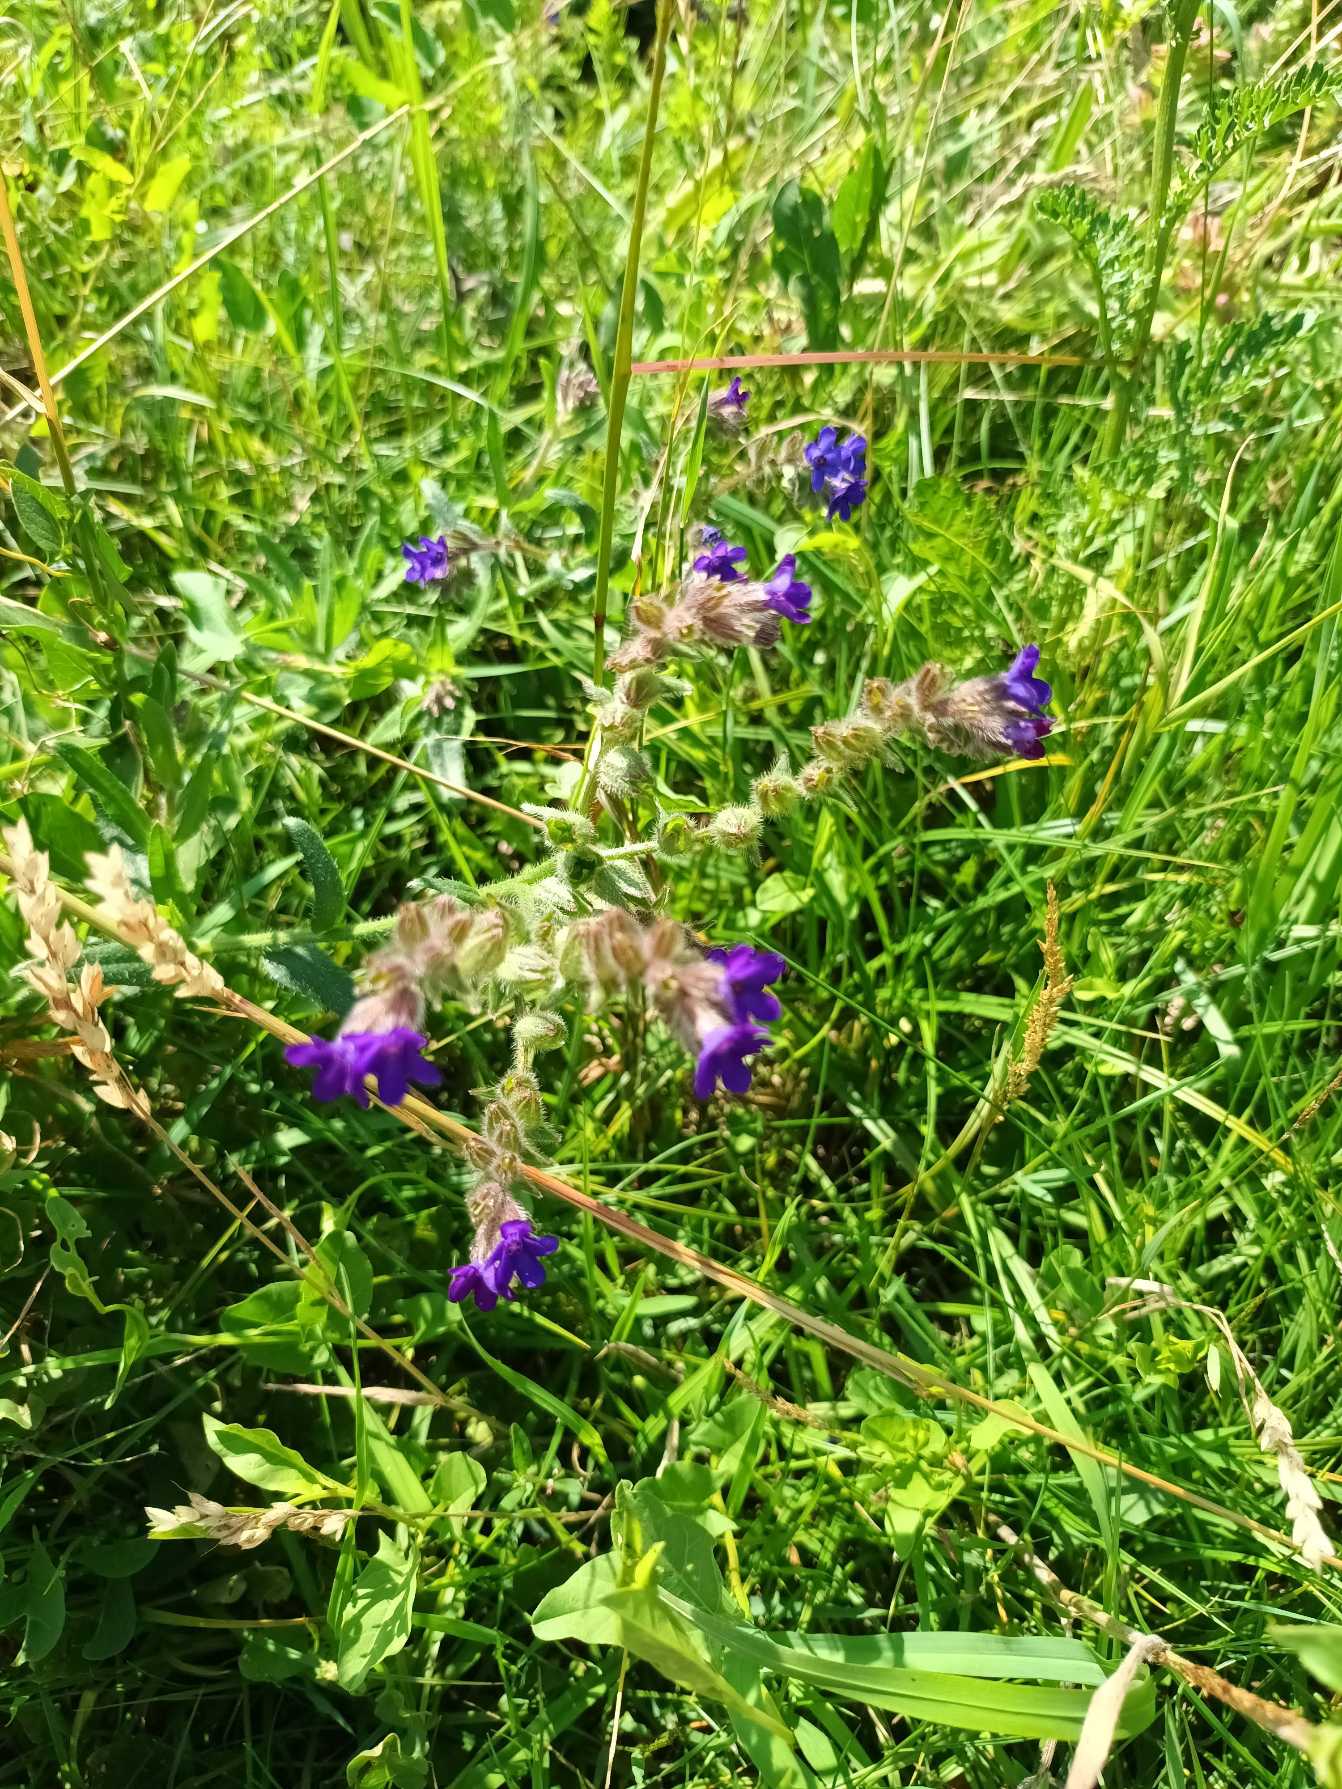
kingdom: Plantae
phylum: Tracheophyta
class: Magnoliopsida
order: Boraginales
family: Boraginaceae
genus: Anchusa
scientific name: Anchusa officinalis
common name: Læge-oksetunge
